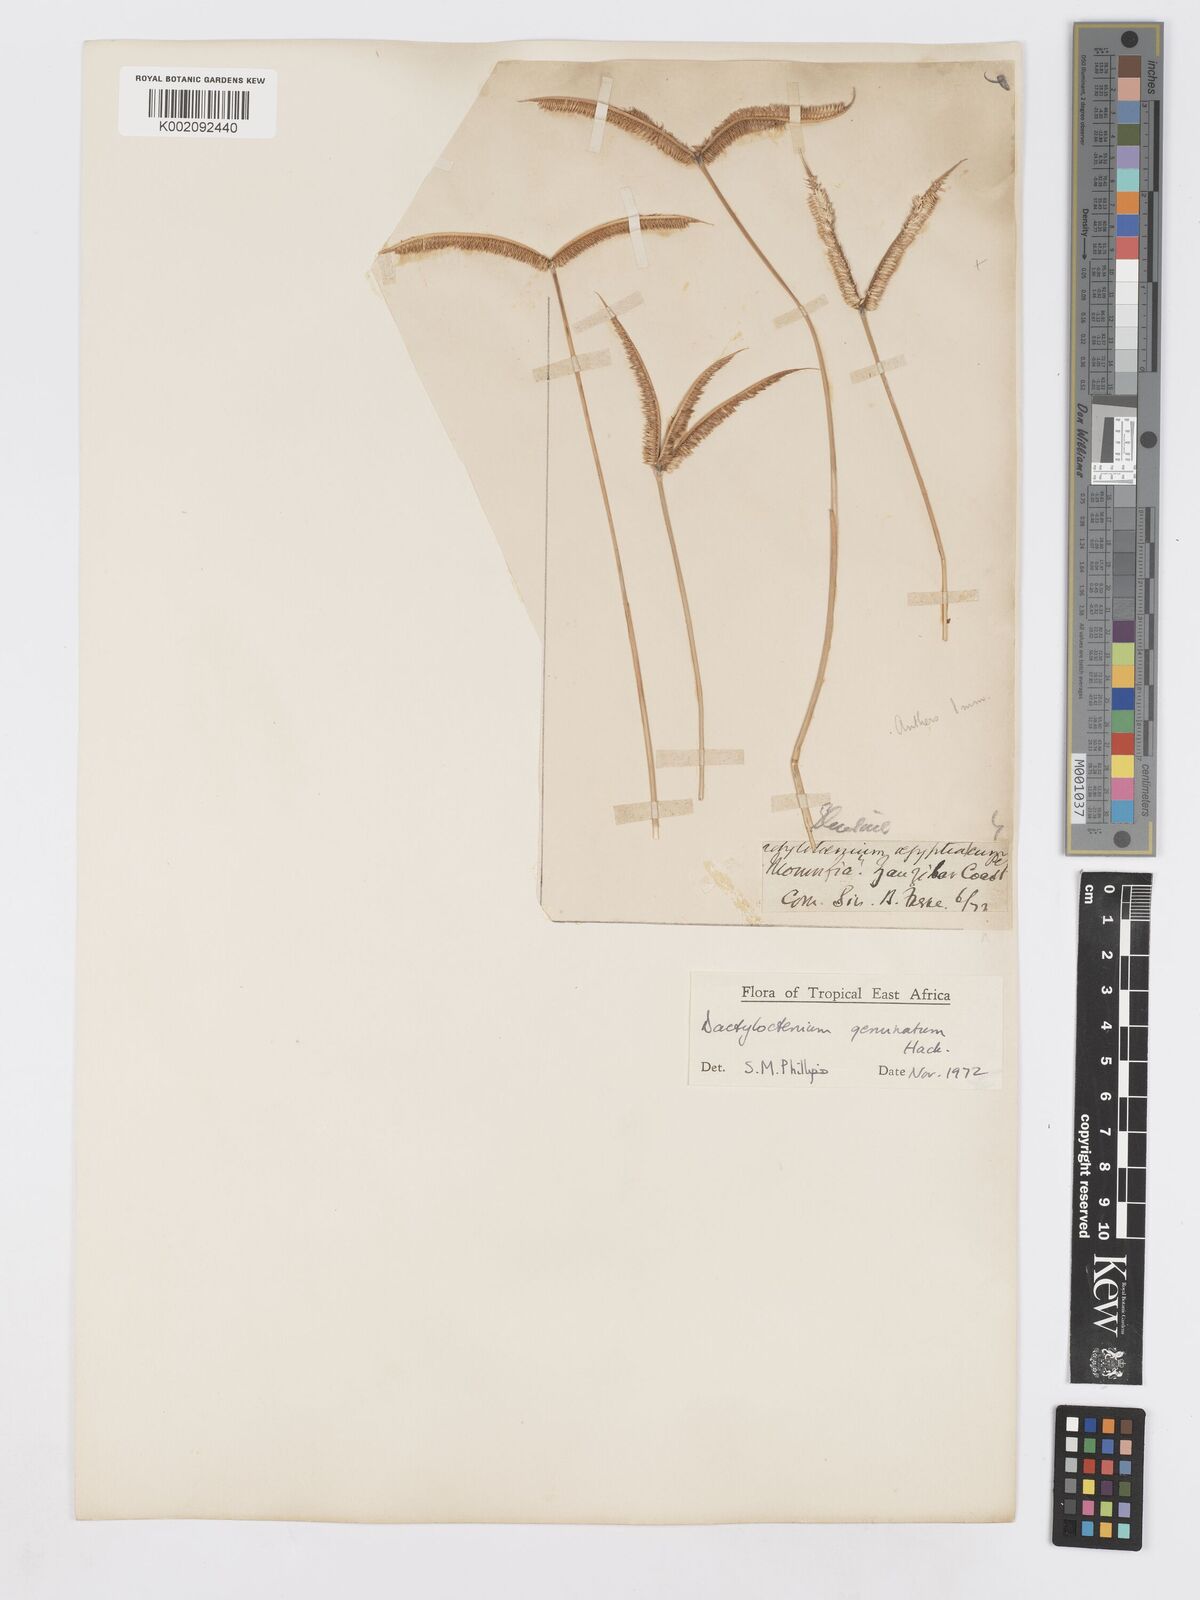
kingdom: Plantae
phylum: Tracheophyta
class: Liliopsida
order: Poales
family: Poaceae
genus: Dactyloctenium
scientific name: Dactyloctenium geminatum
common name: Crowsfoot grass
